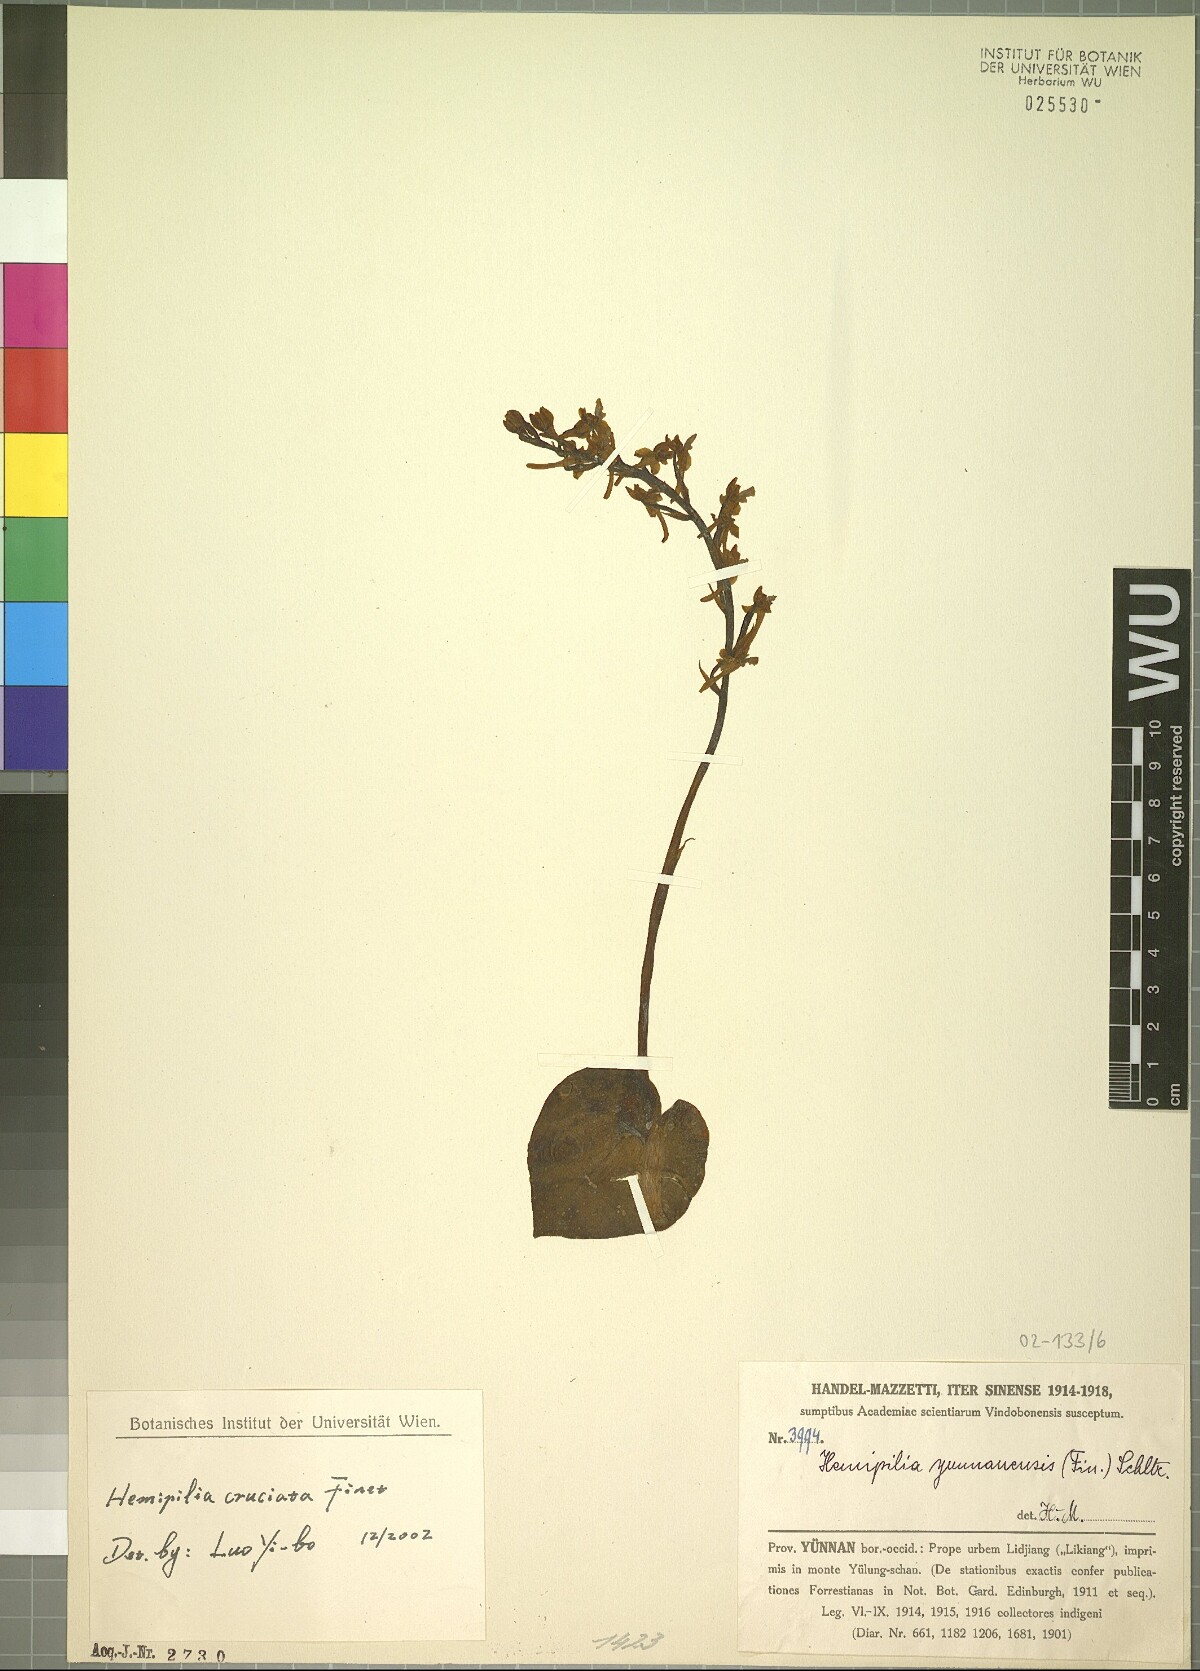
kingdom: Plantae
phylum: Tracheophyta
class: Liliopsida
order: Asparagales
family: Orchidaceae
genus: Hemipilia
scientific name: Hemipilia cordifolia
